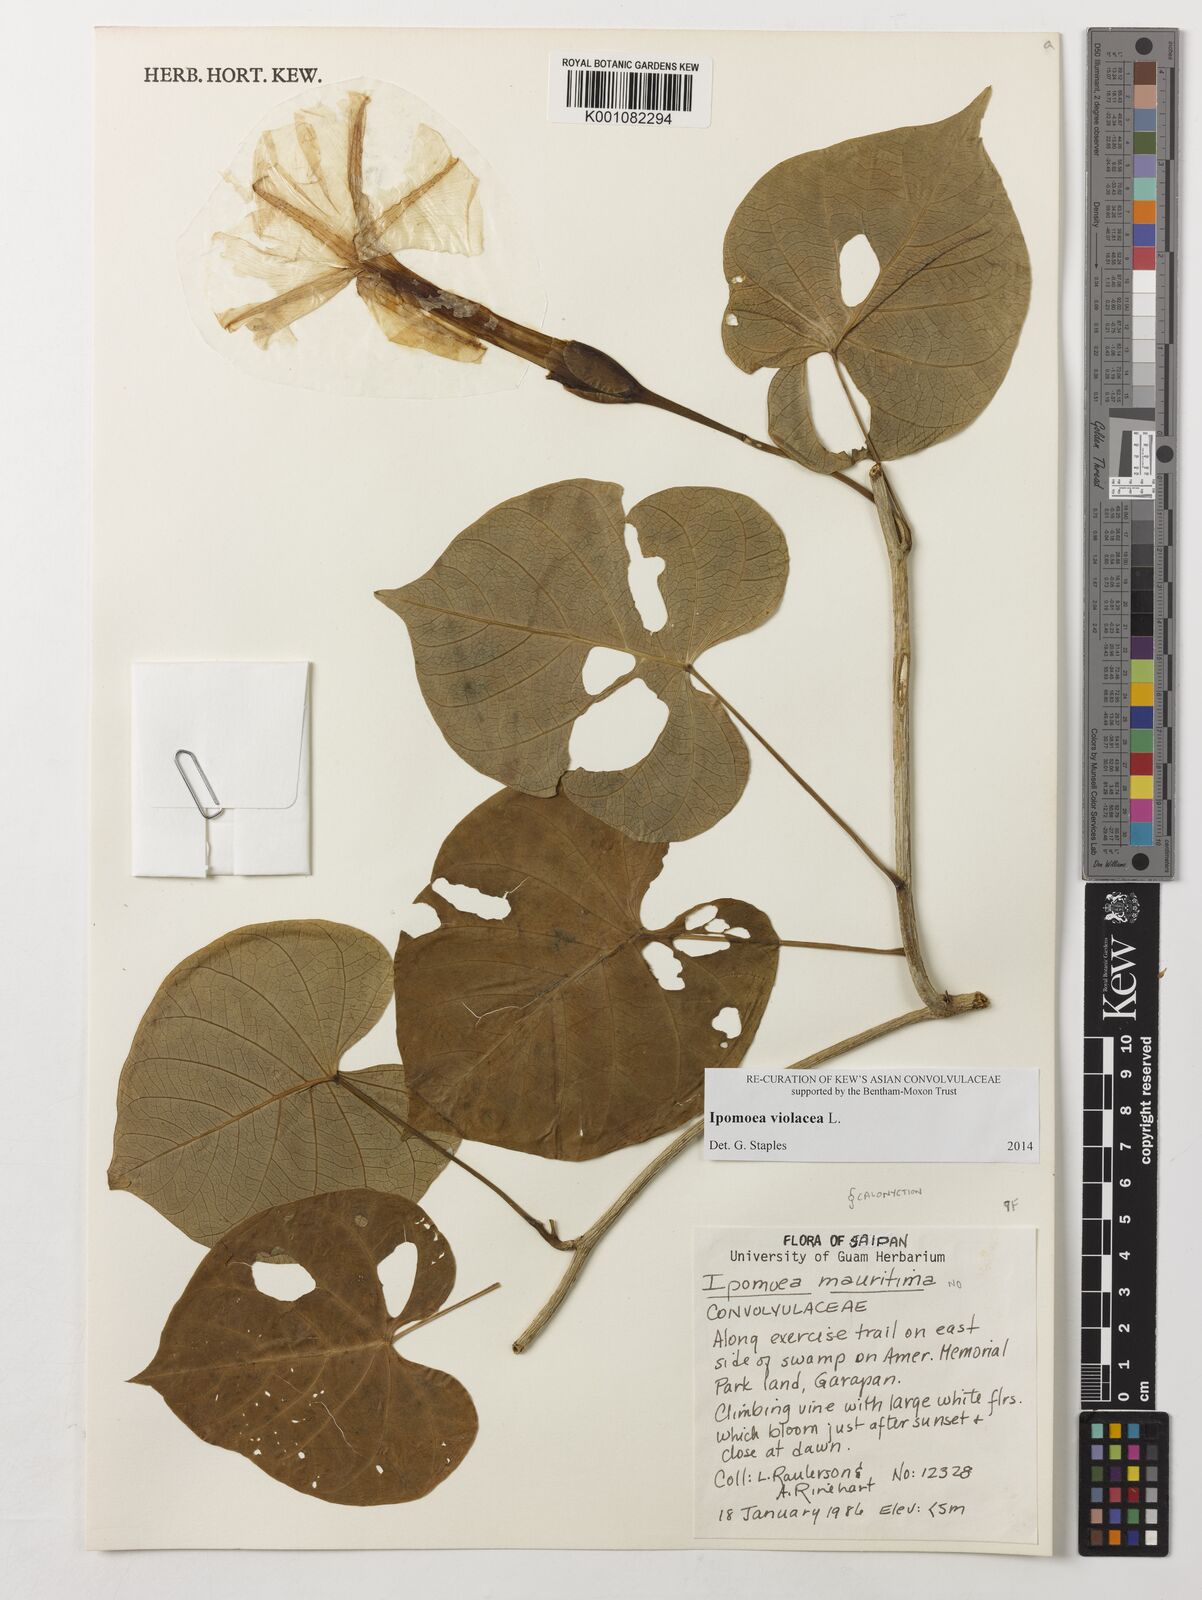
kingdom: Plantae
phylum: Tracheophyta
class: Magnoliopsida
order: Solanales
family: Convolvulaceae
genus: Ipomoea
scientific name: Ipomoea violacea
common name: Beach moonflower
